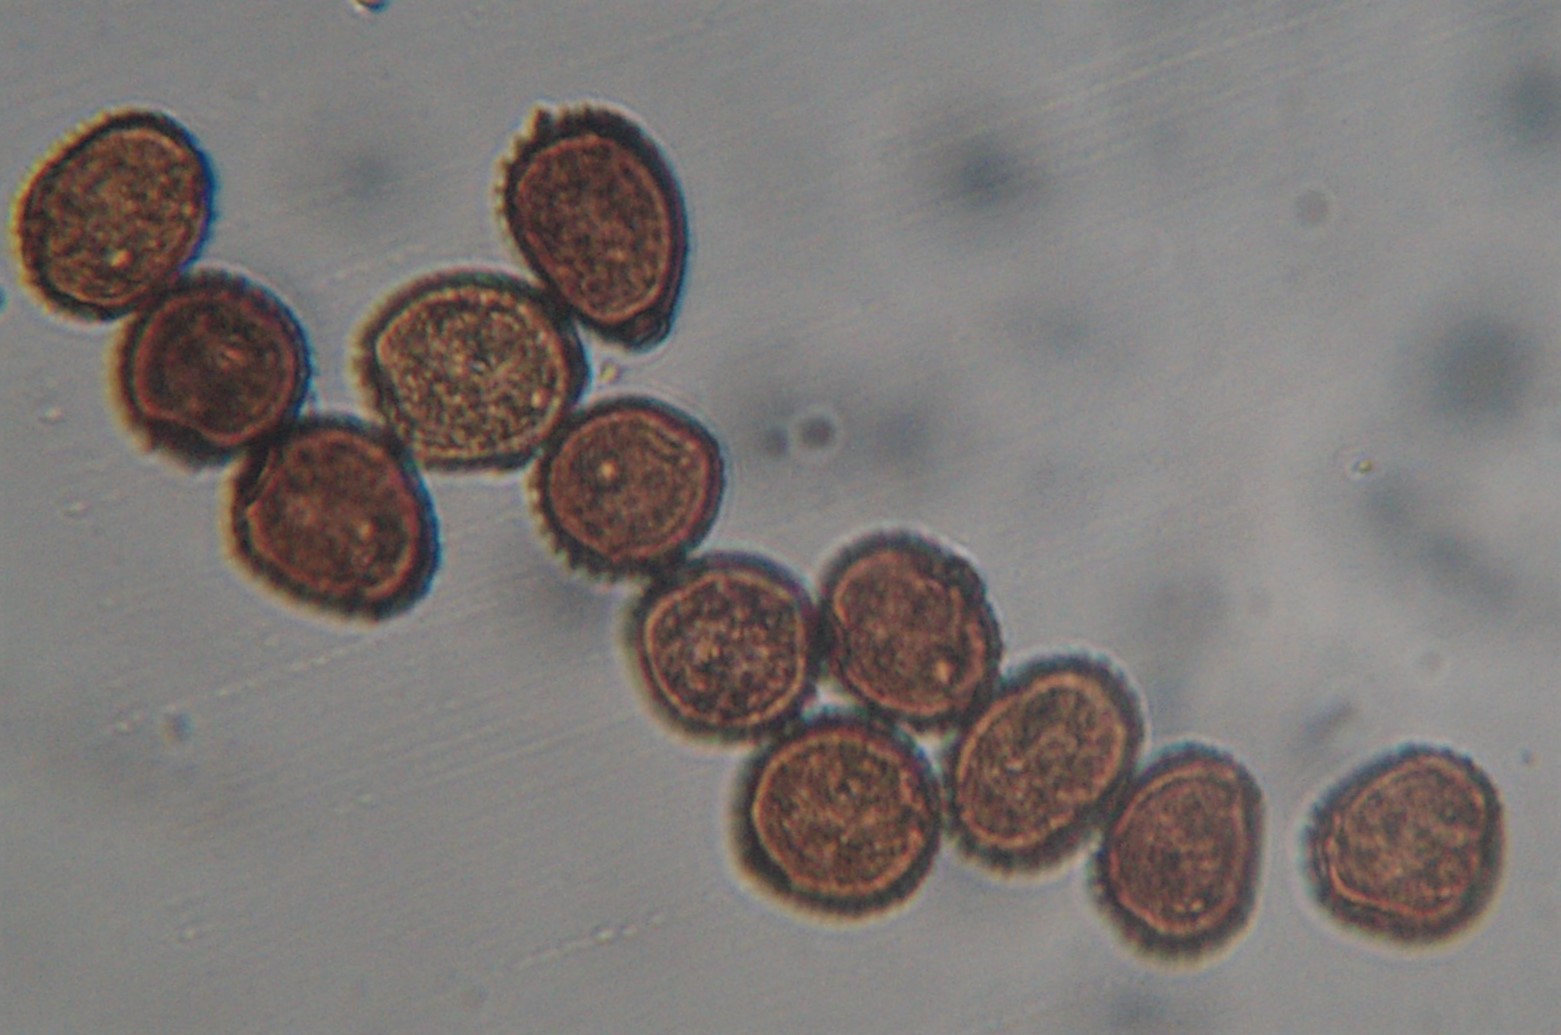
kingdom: Fungi
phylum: Basidiomycota
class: Pucciniomycetes
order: Pucciniales
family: Pucciniaceae
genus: Puccinia
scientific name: Puccinia hieracii
